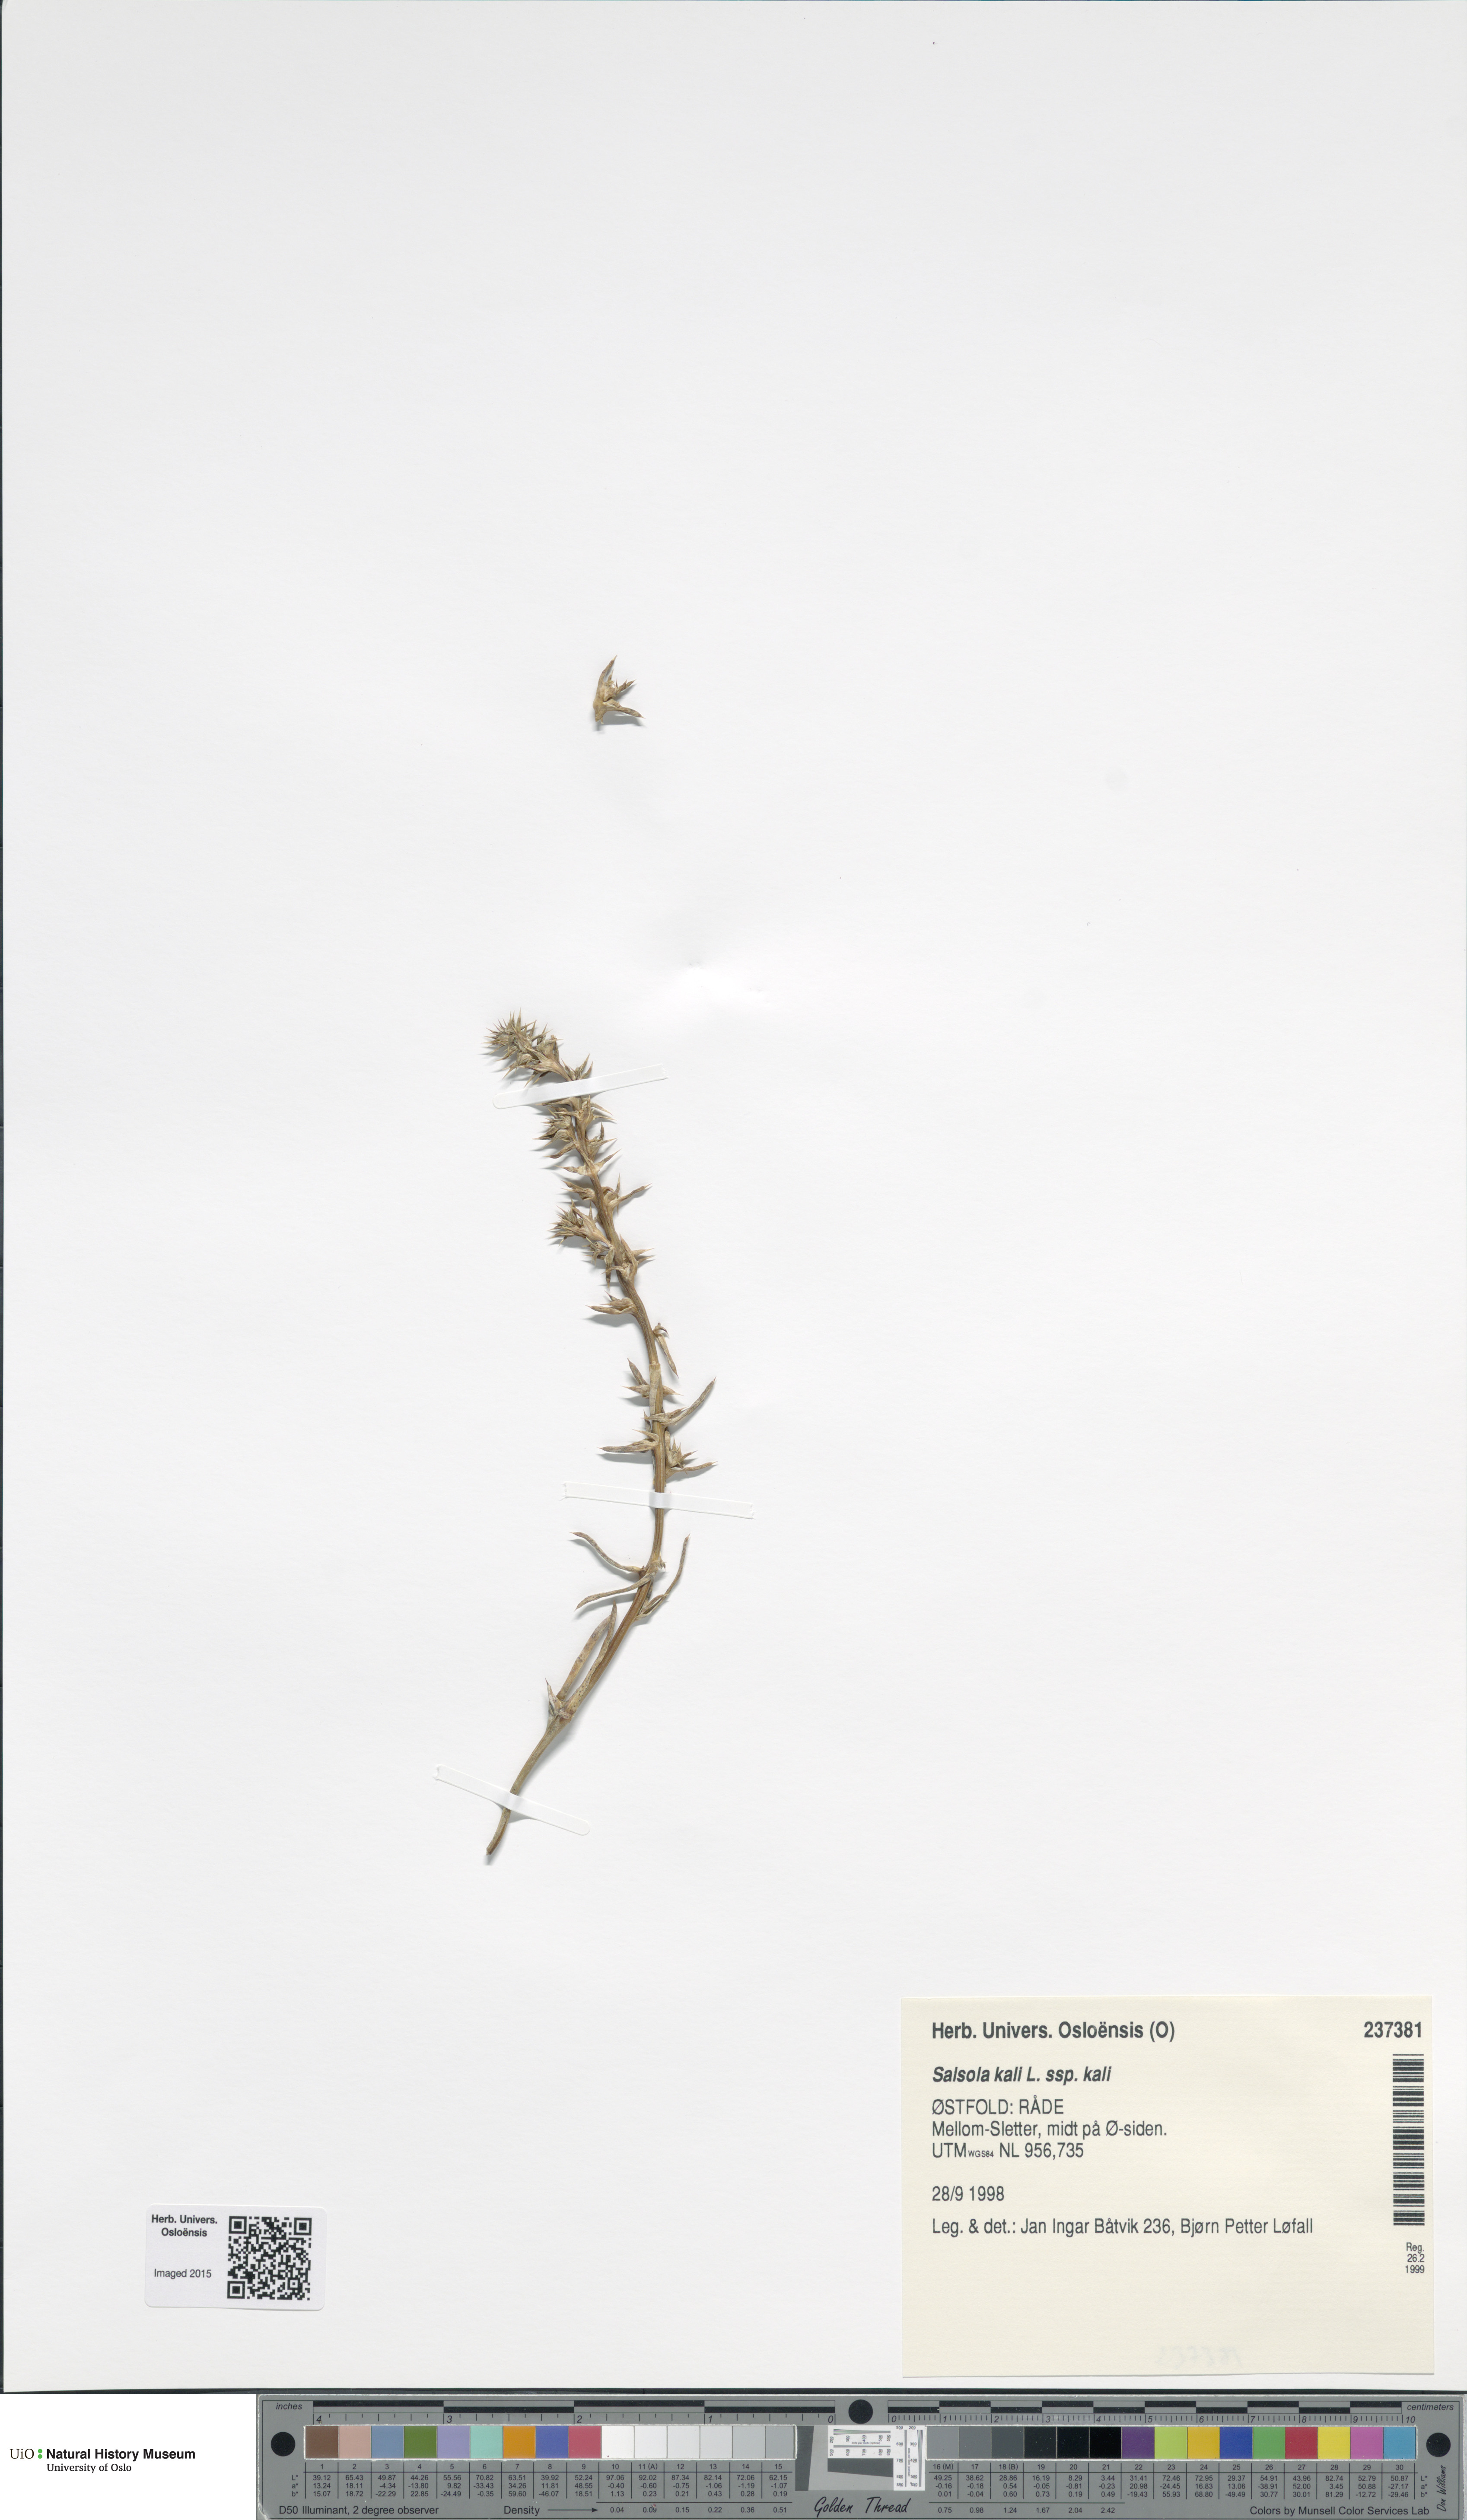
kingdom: Plantae
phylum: Tracheophyta
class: Magnoliopsida
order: Caryophyllales
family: Amaranthaceae
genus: Salsola
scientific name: Salsola kali
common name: Saltwort
